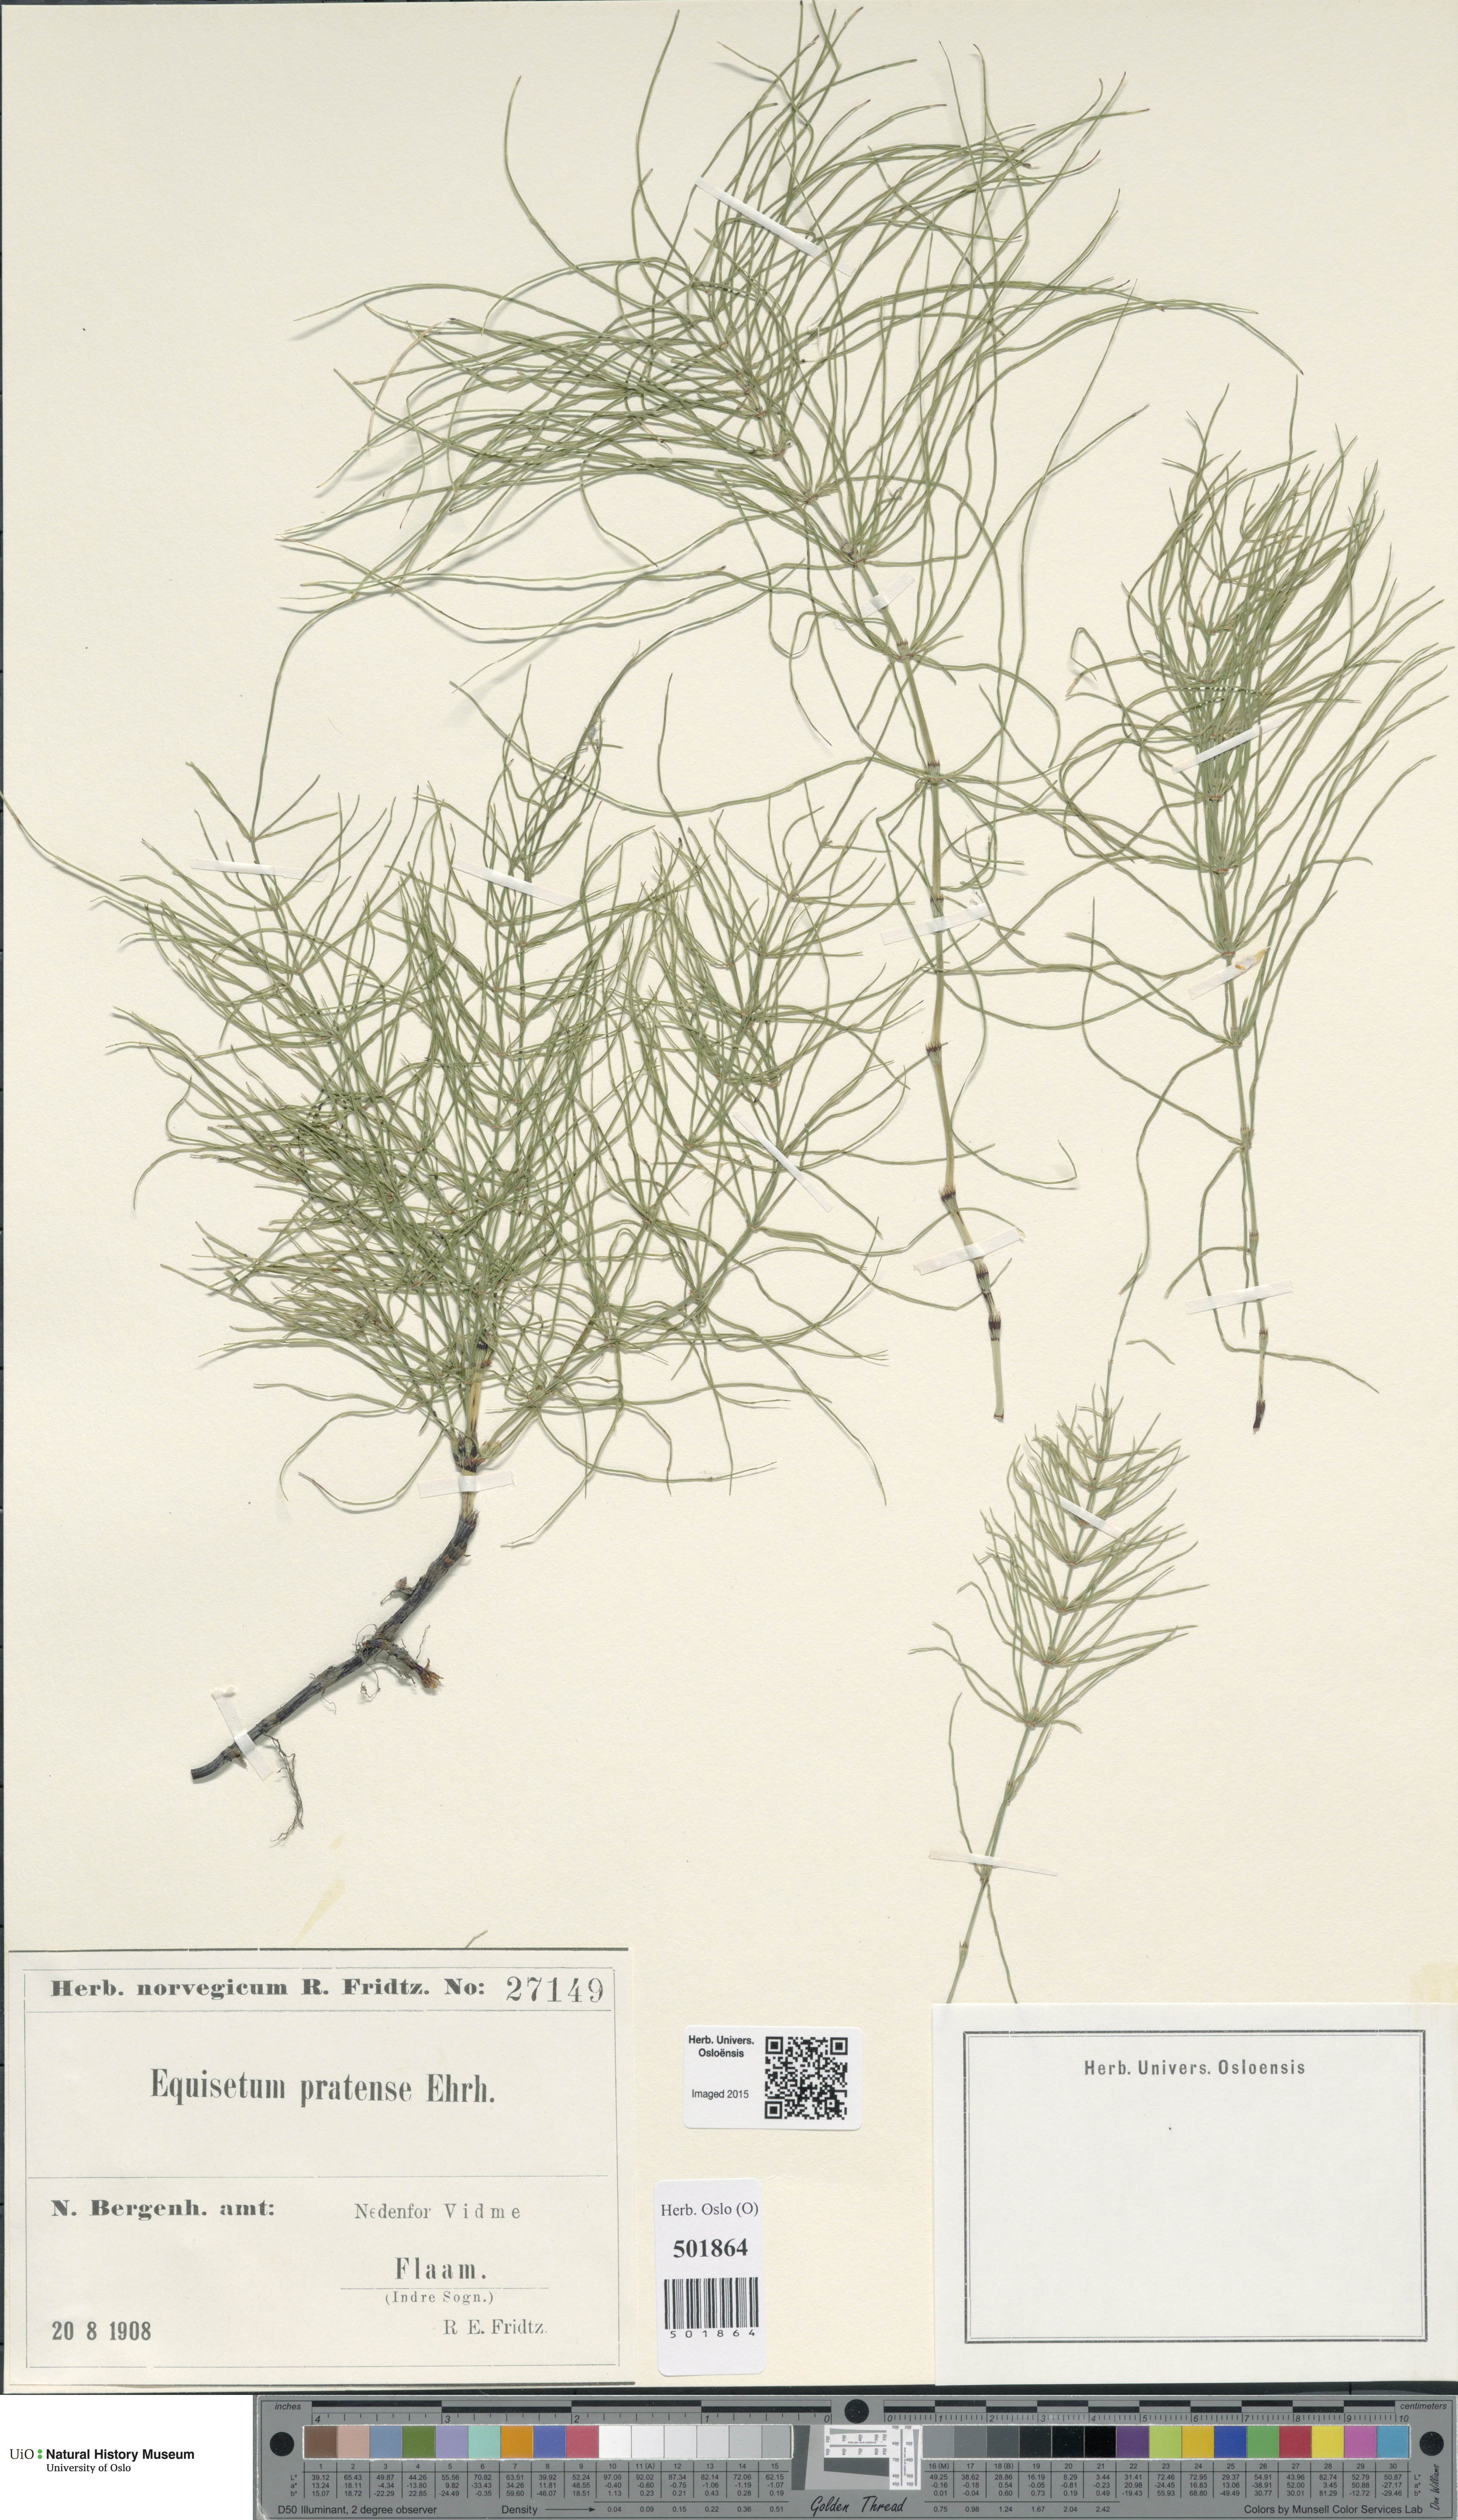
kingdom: Plantae
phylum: Tracheophyta
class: Polypodiopsida
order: Equisetales
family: Equisetaceae
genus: Equisetum
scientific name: Equisetum pratense
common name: Meadow horsetail
